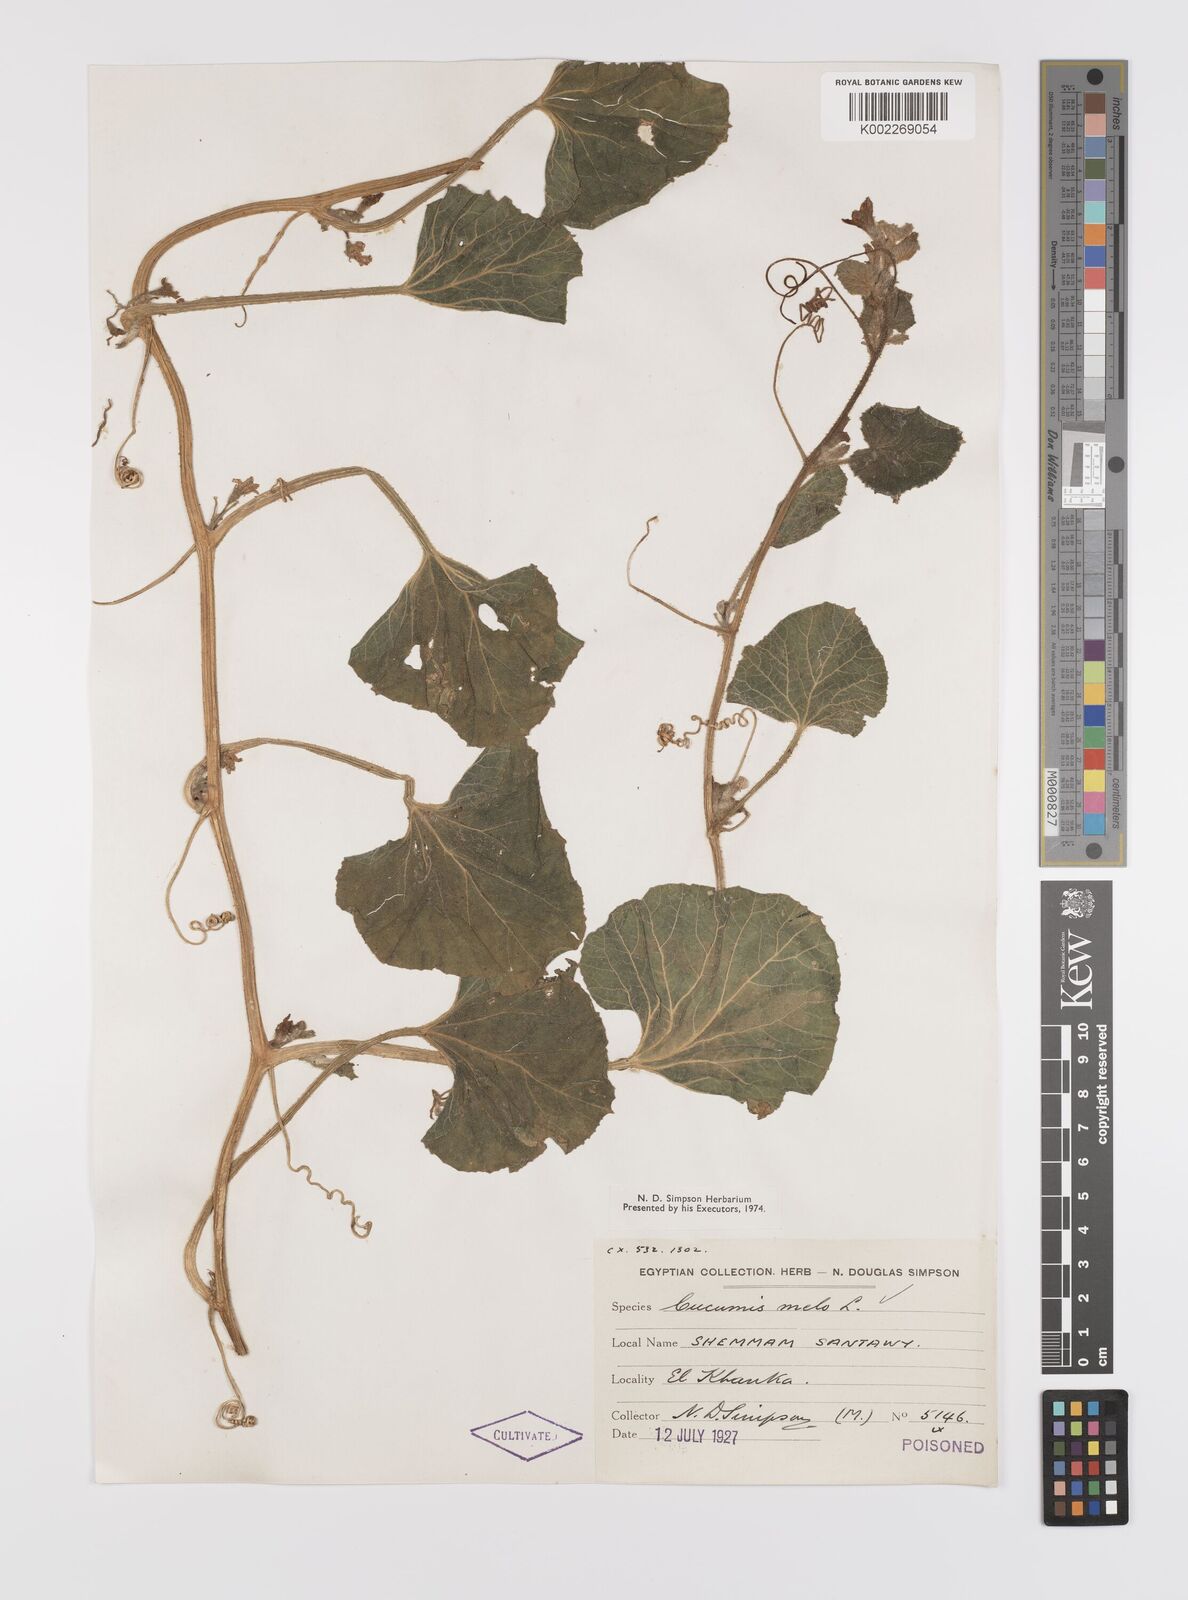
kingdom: Plantae
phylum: Tracheophyta
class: Magnoliopsida
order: Cucurbitales
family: Cucurbitaceae
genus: Cucumis
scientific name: Cucumis melo
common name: Melon
